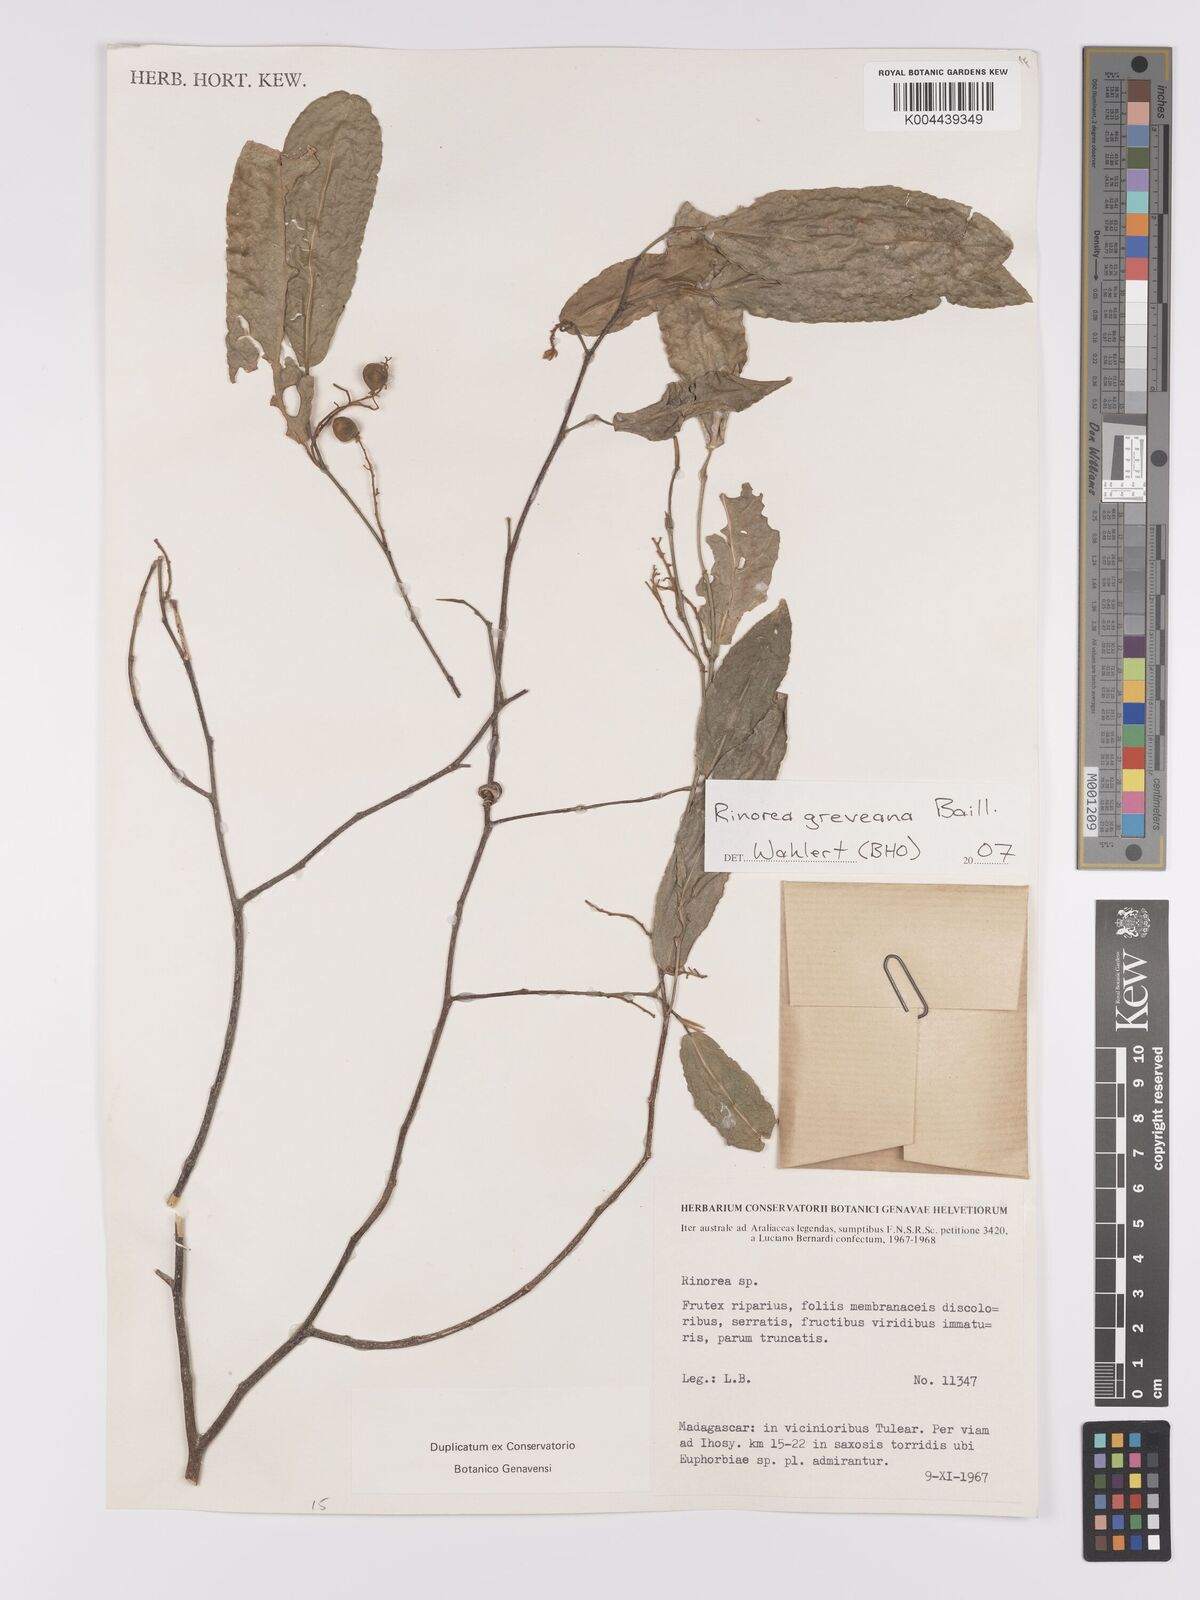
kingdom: Plantae
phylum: Tracheophyta
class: Magnoliopsida
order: Malpighiales
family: Violaceae
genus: Rinorea
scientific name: Rinorea greveana
